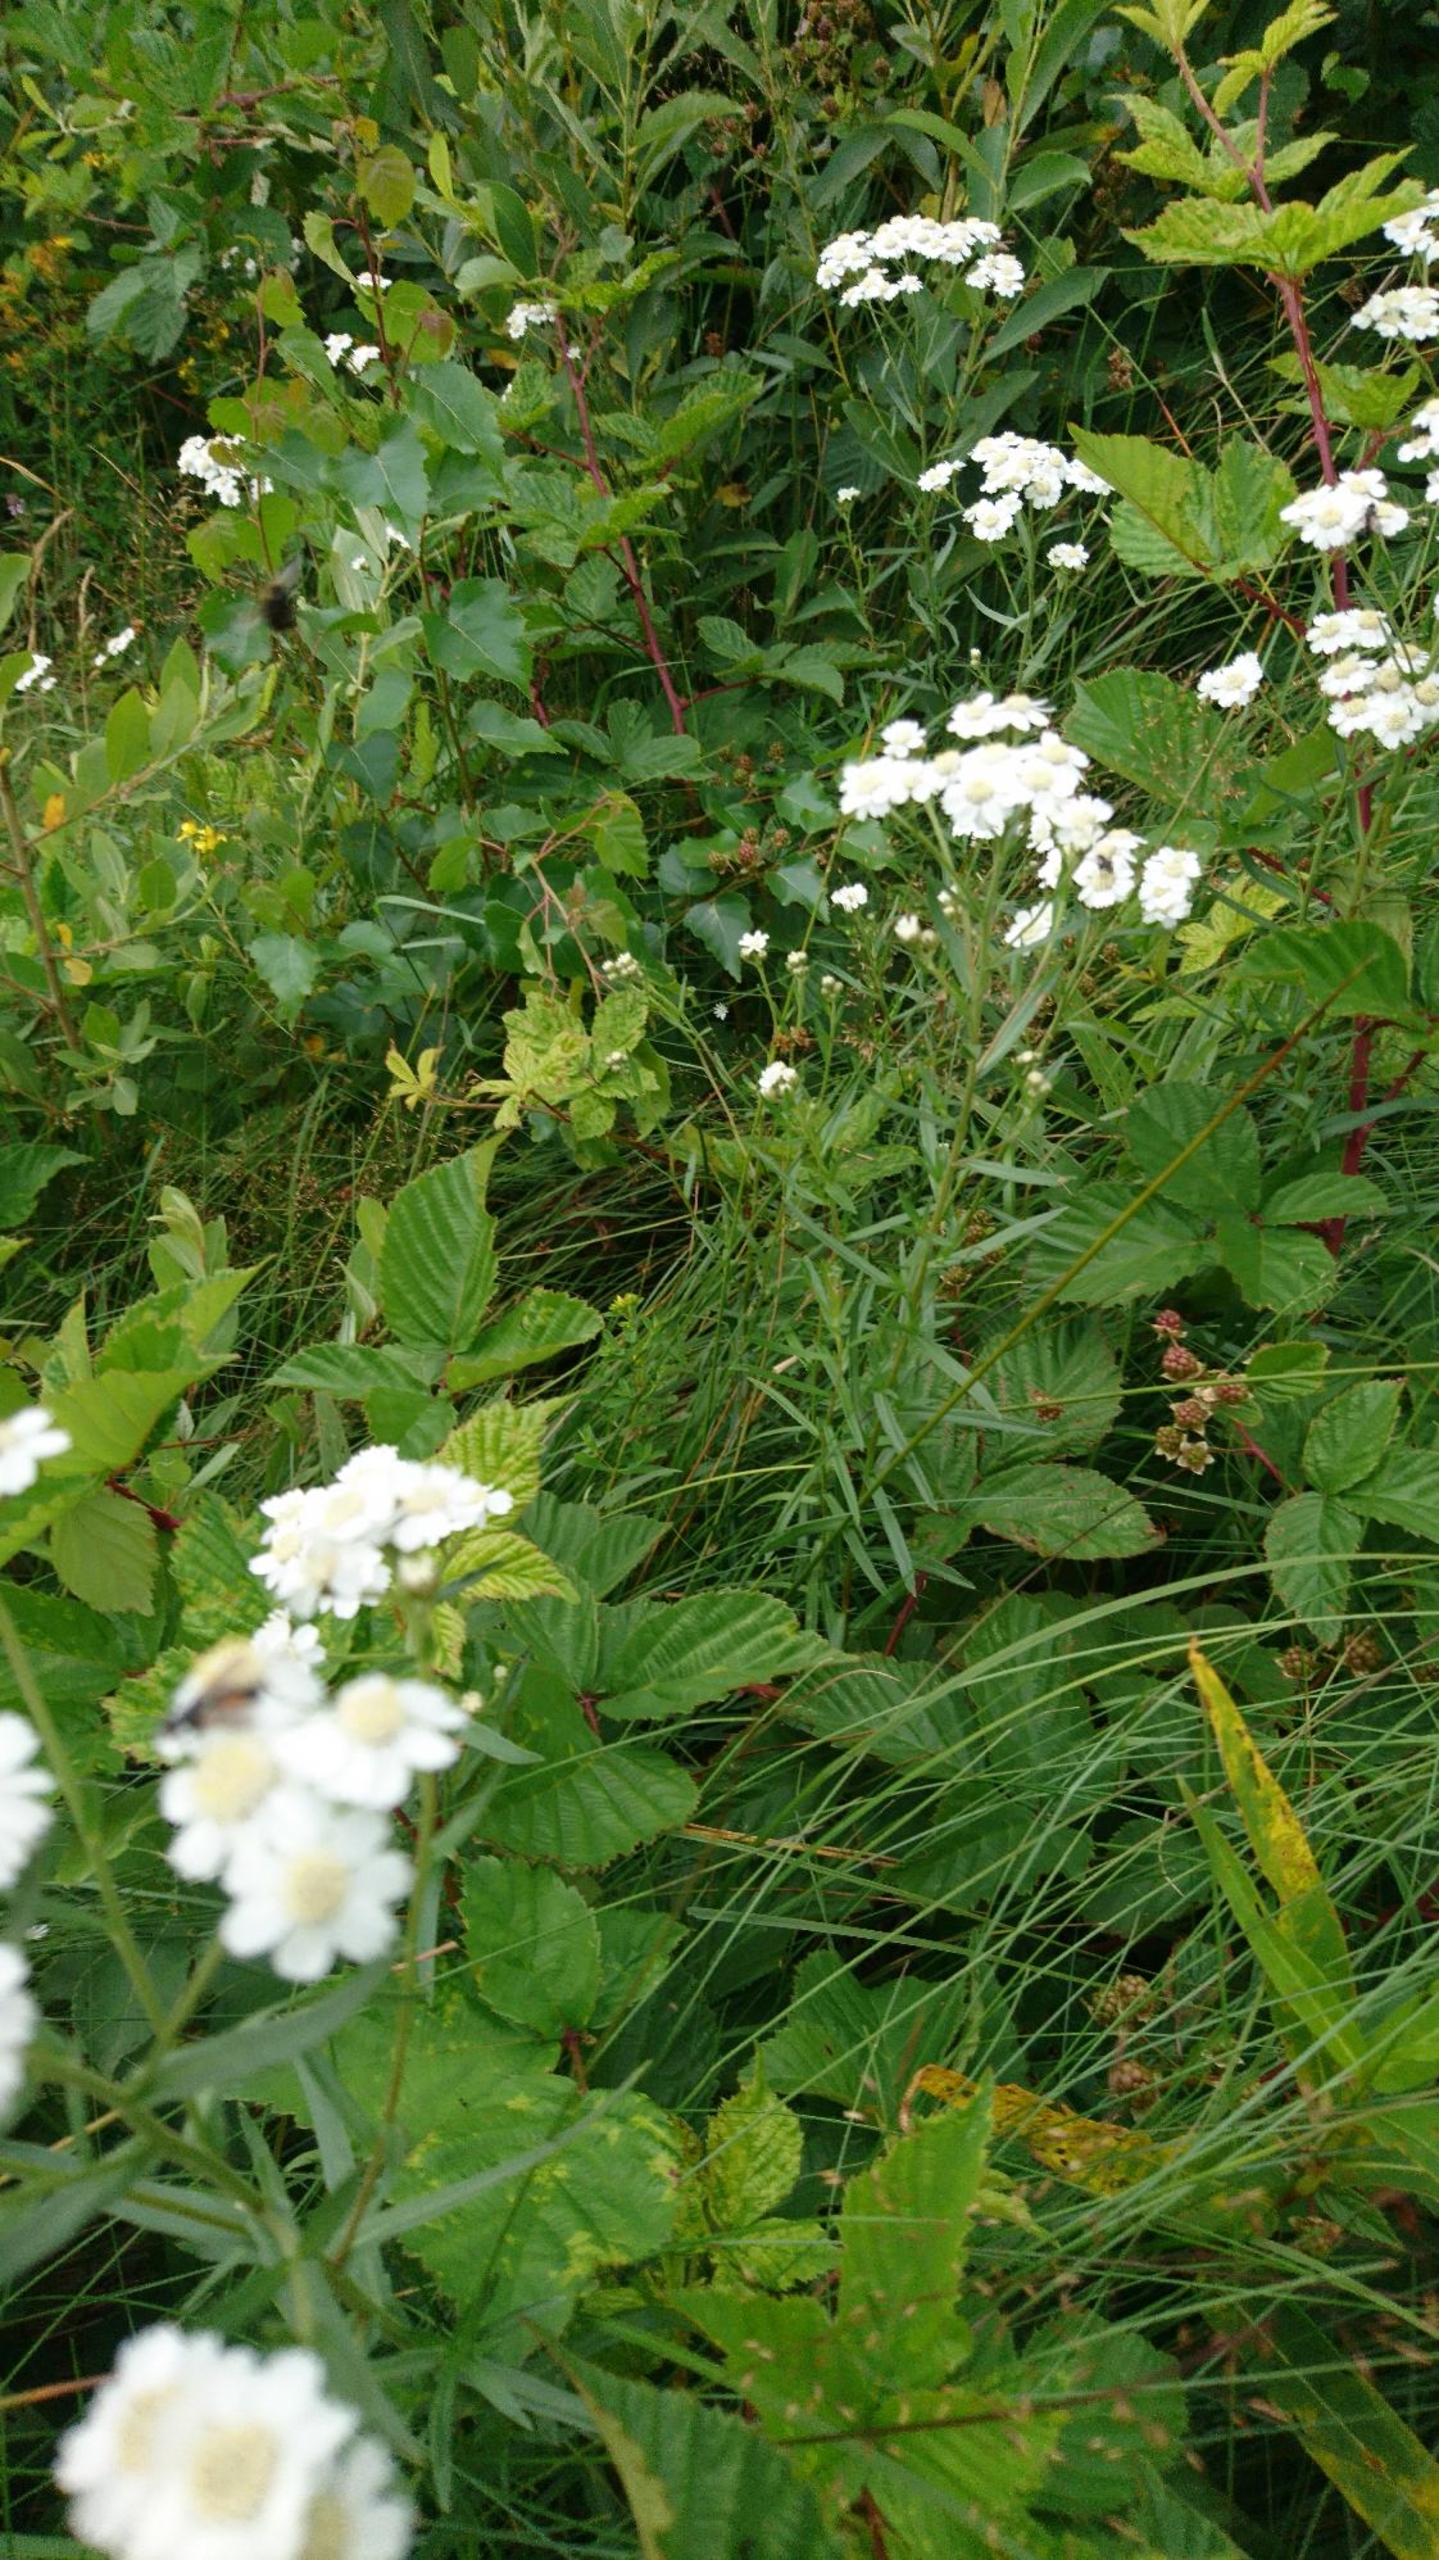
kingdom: Plantae
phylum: Tracheophyta
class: Magnoliopsida
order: Asterales
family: Asteraceae
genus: Achillea
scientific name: Achillea ptarmica
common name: Nyse-røllike
